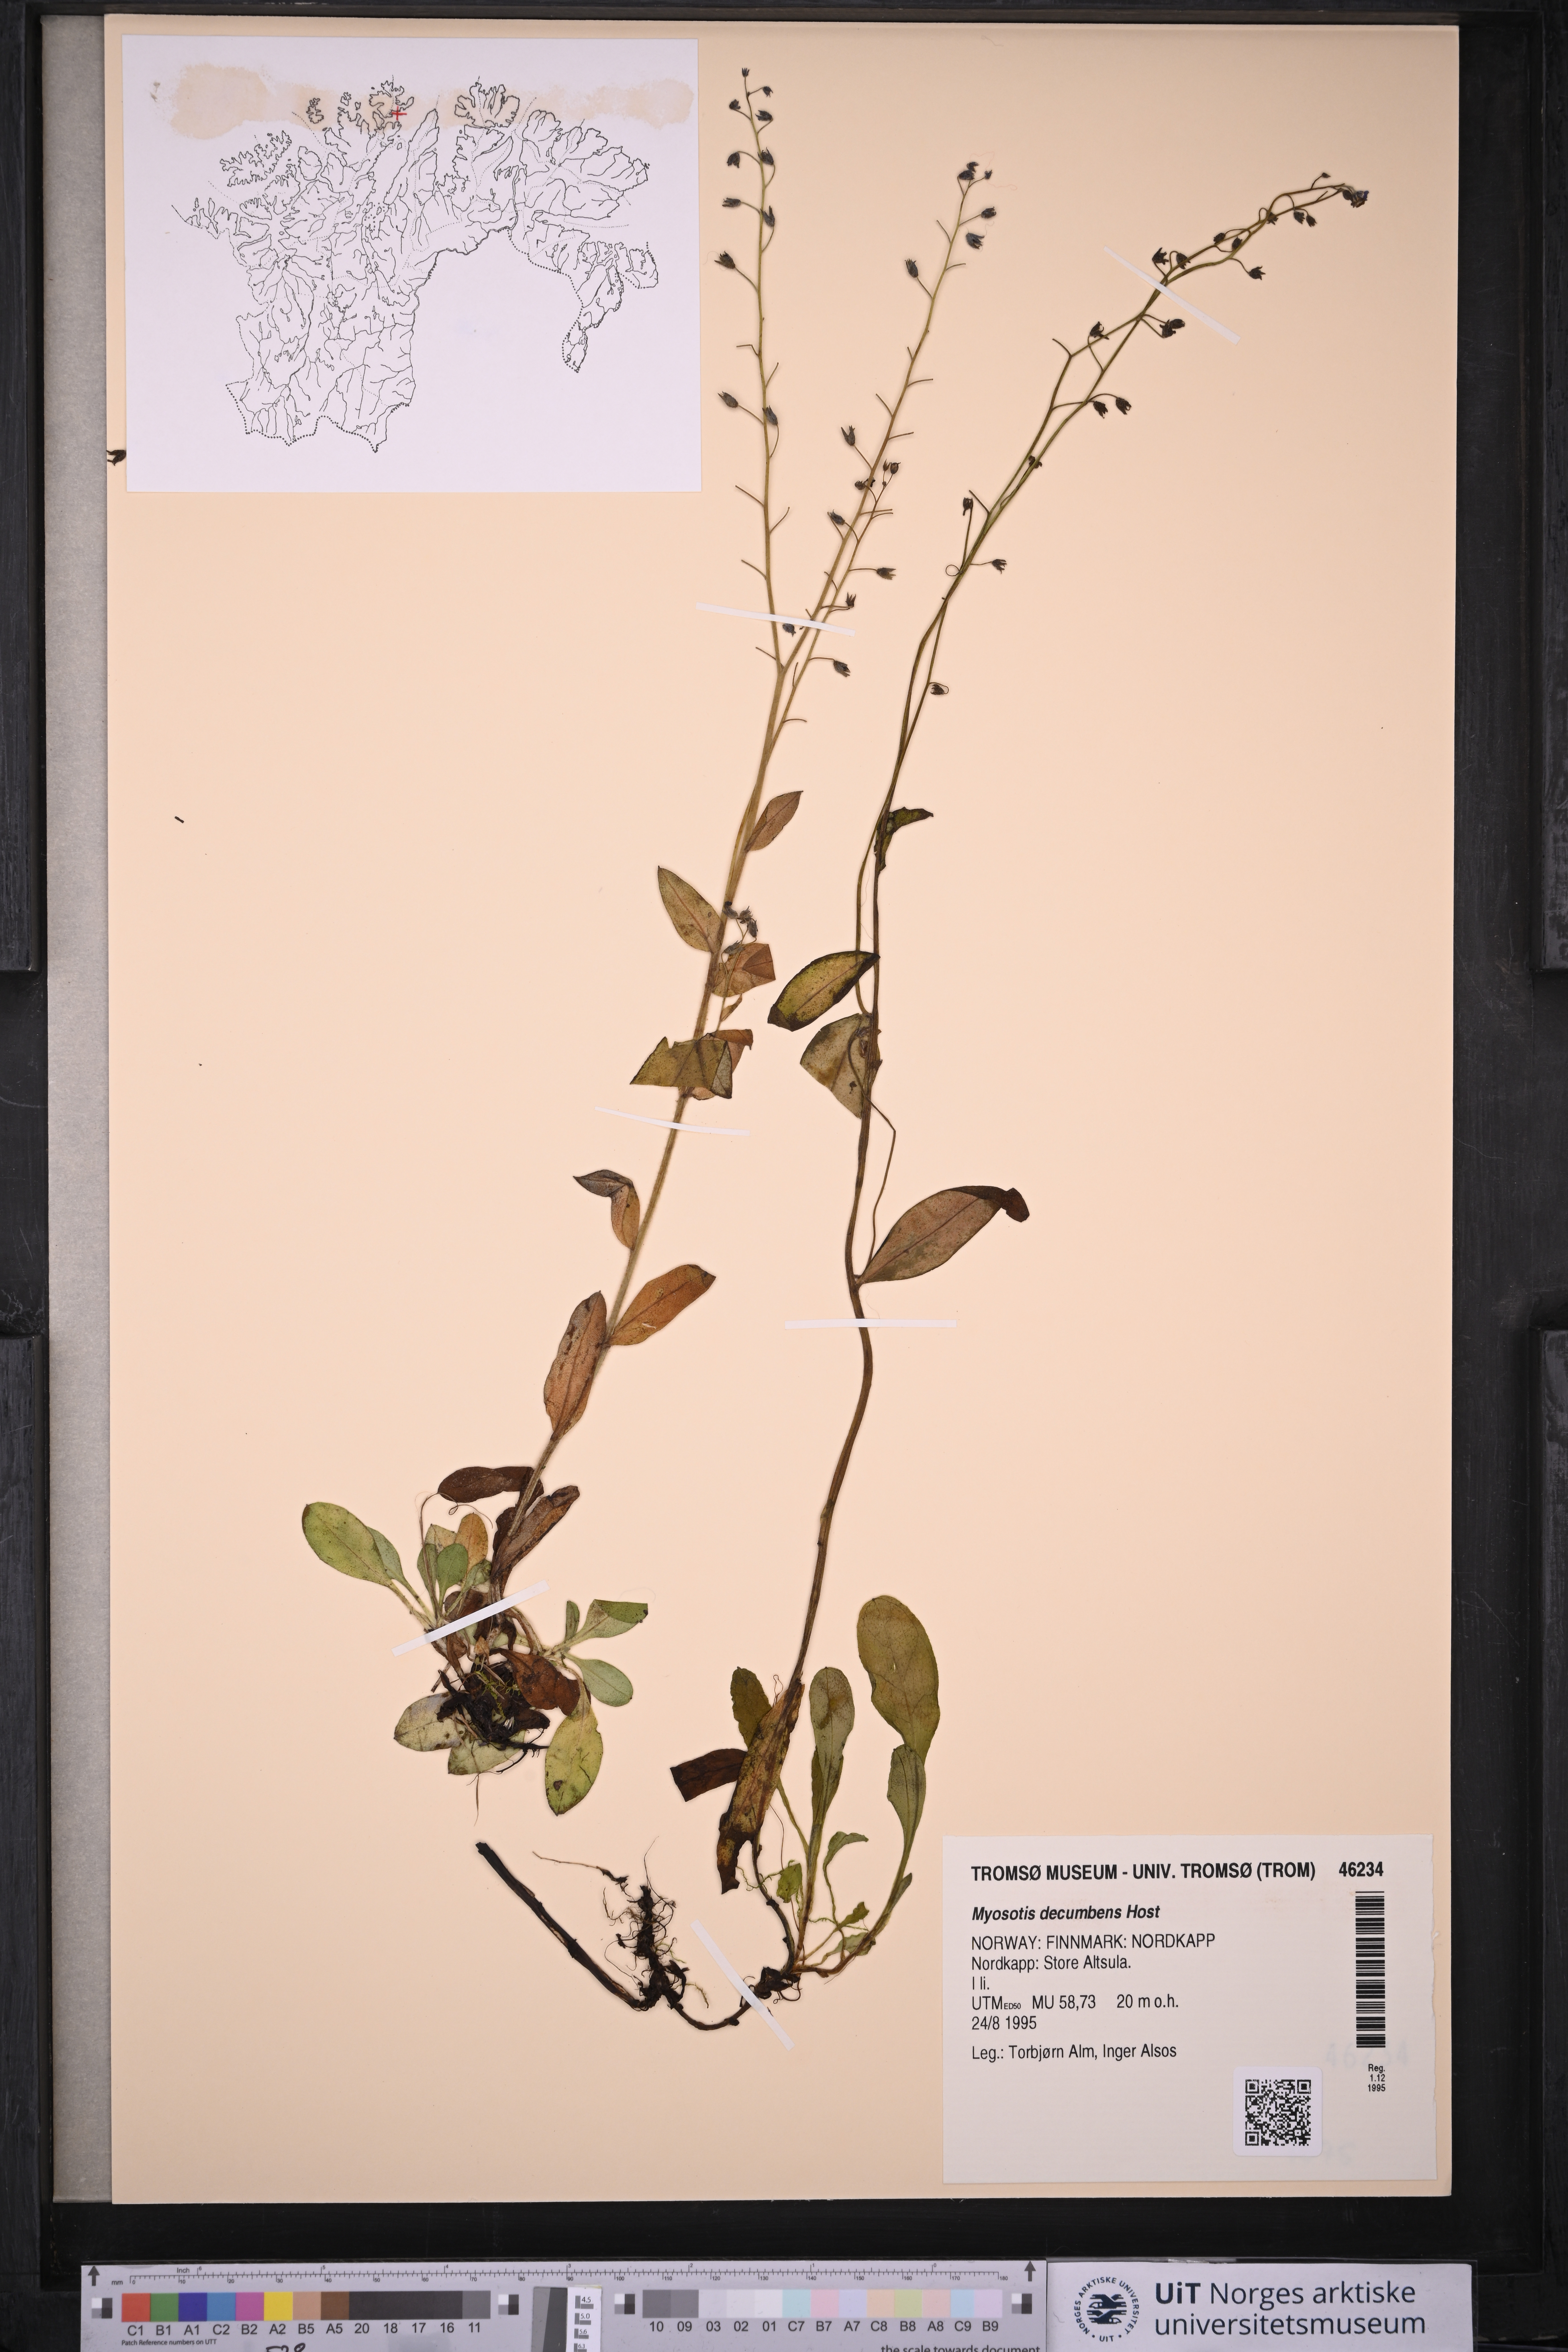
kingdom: Plantae
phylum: Tracheophyta
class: Magnoliopsida
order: Boraginales
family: Boraginaceae
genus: Myosotis
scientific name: Myosotis decumbens
